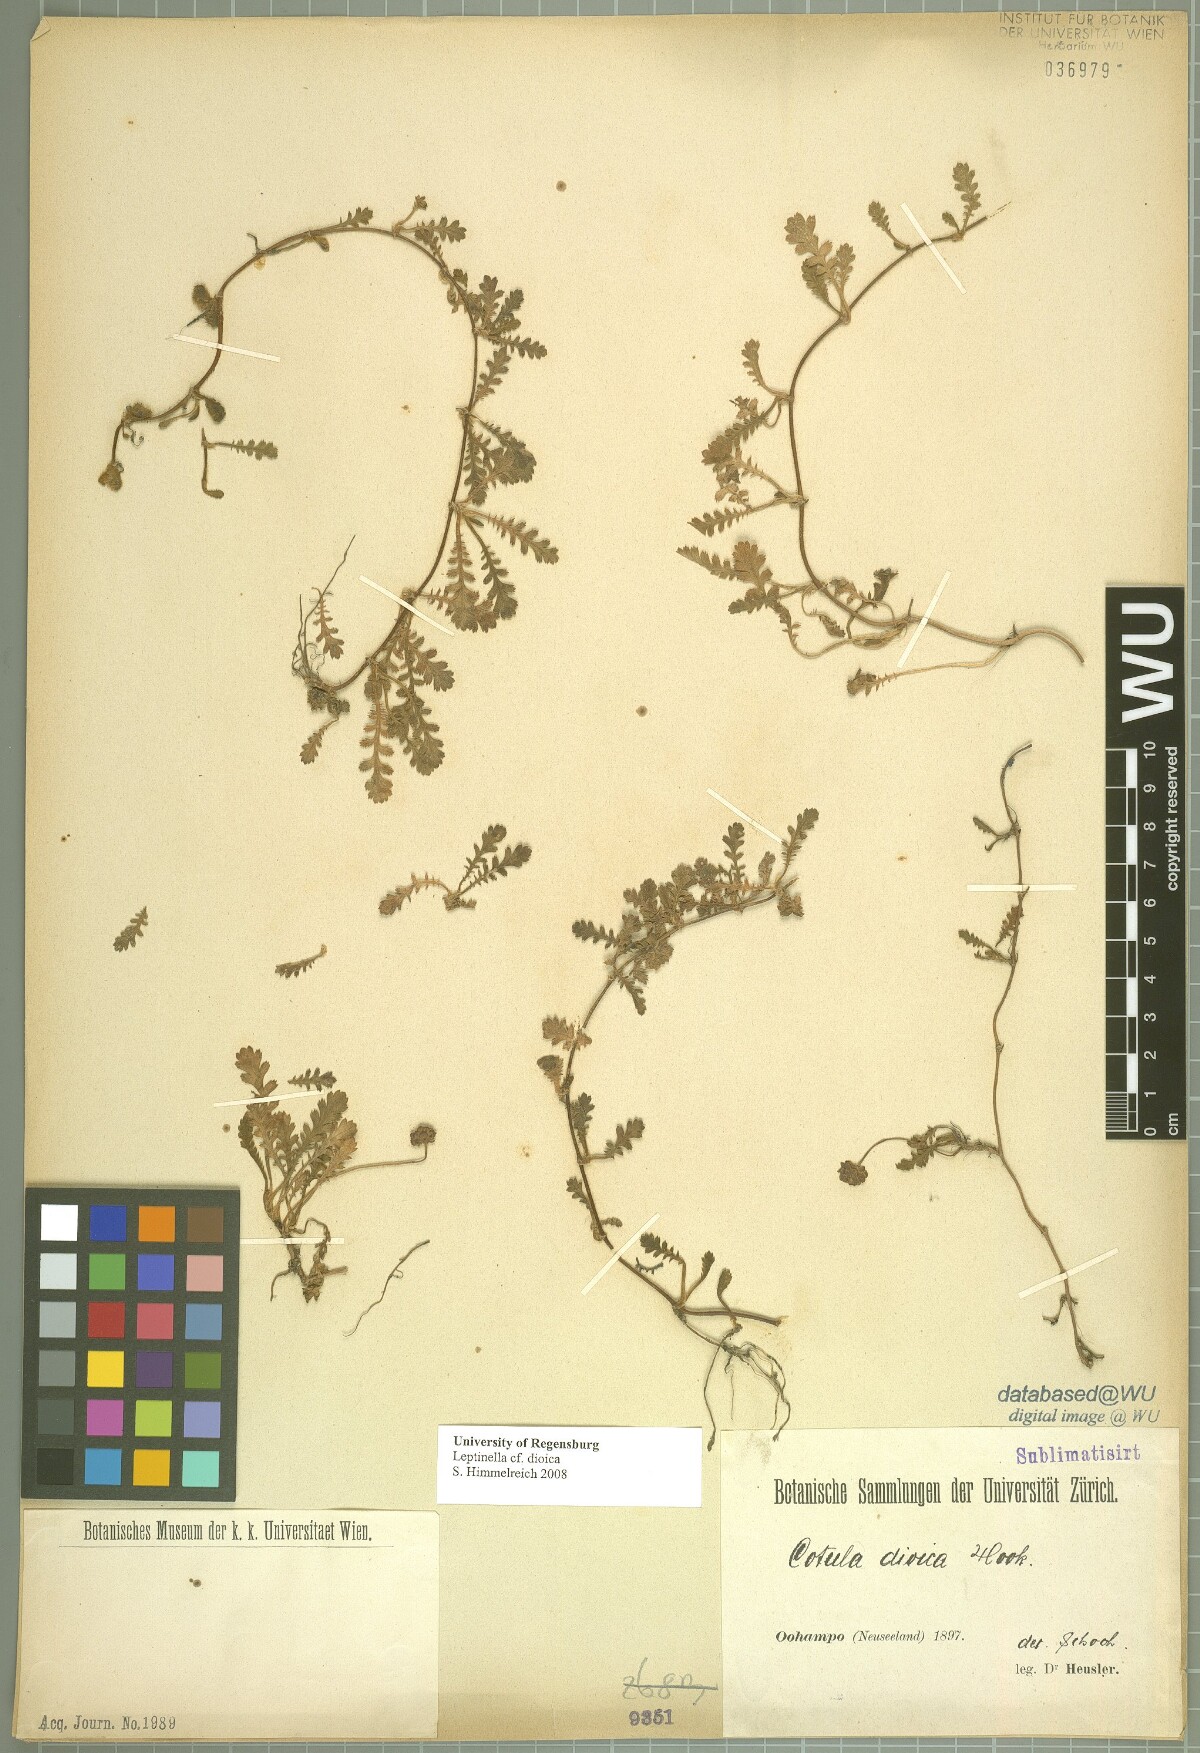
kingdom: Plantae
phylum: Tracheophyta
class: Magnoliopsida
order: Asterales
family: Asteraceae
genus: Leptinella
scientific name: Leptinella dioica
